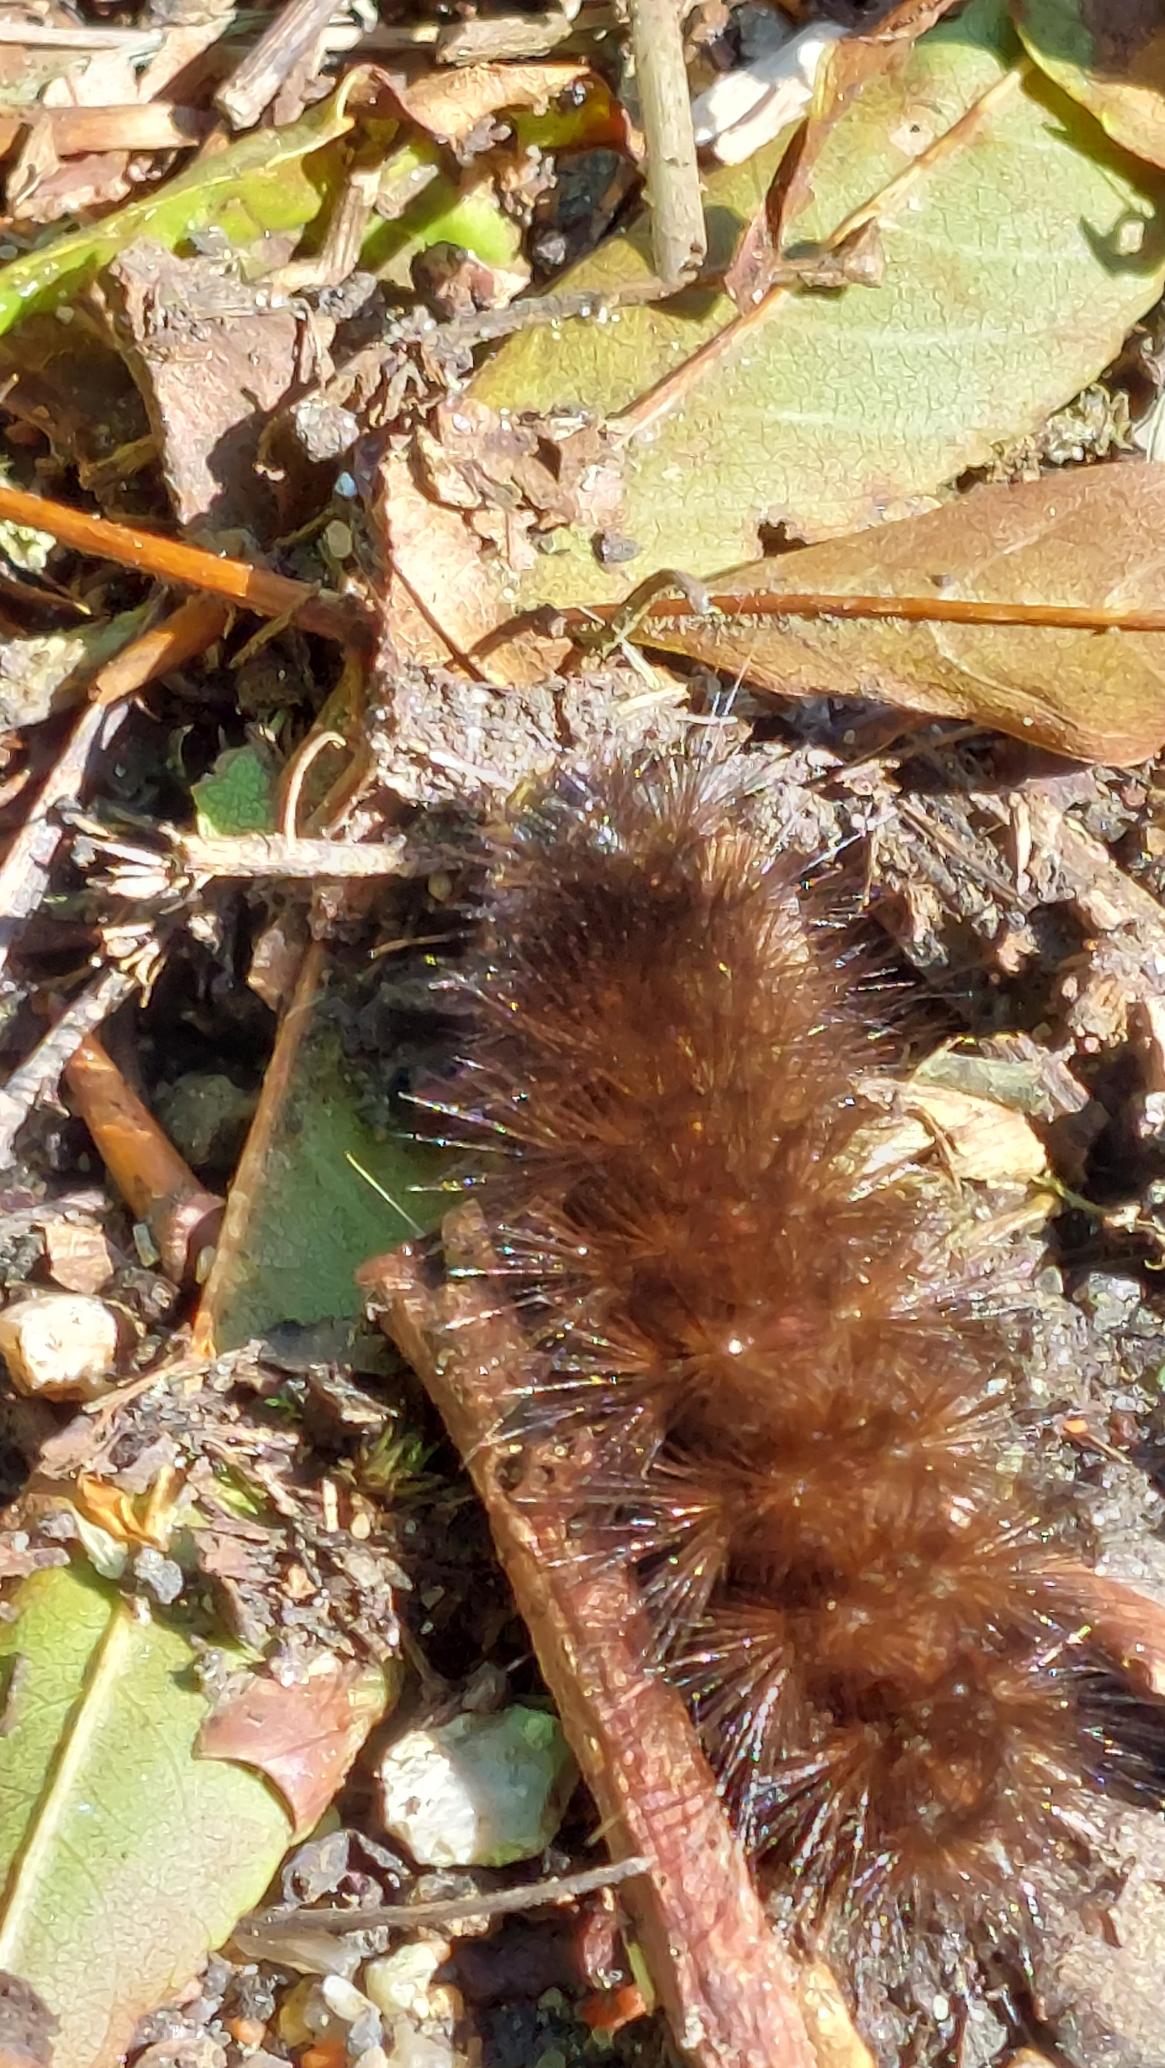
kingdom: Animalia
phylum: Arthropoda
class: Insecta
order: Lepidoptera
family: Erebidae
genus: Phragmatobia
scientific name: Phragmatobia fuliginosa
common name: Kanelbjørn
